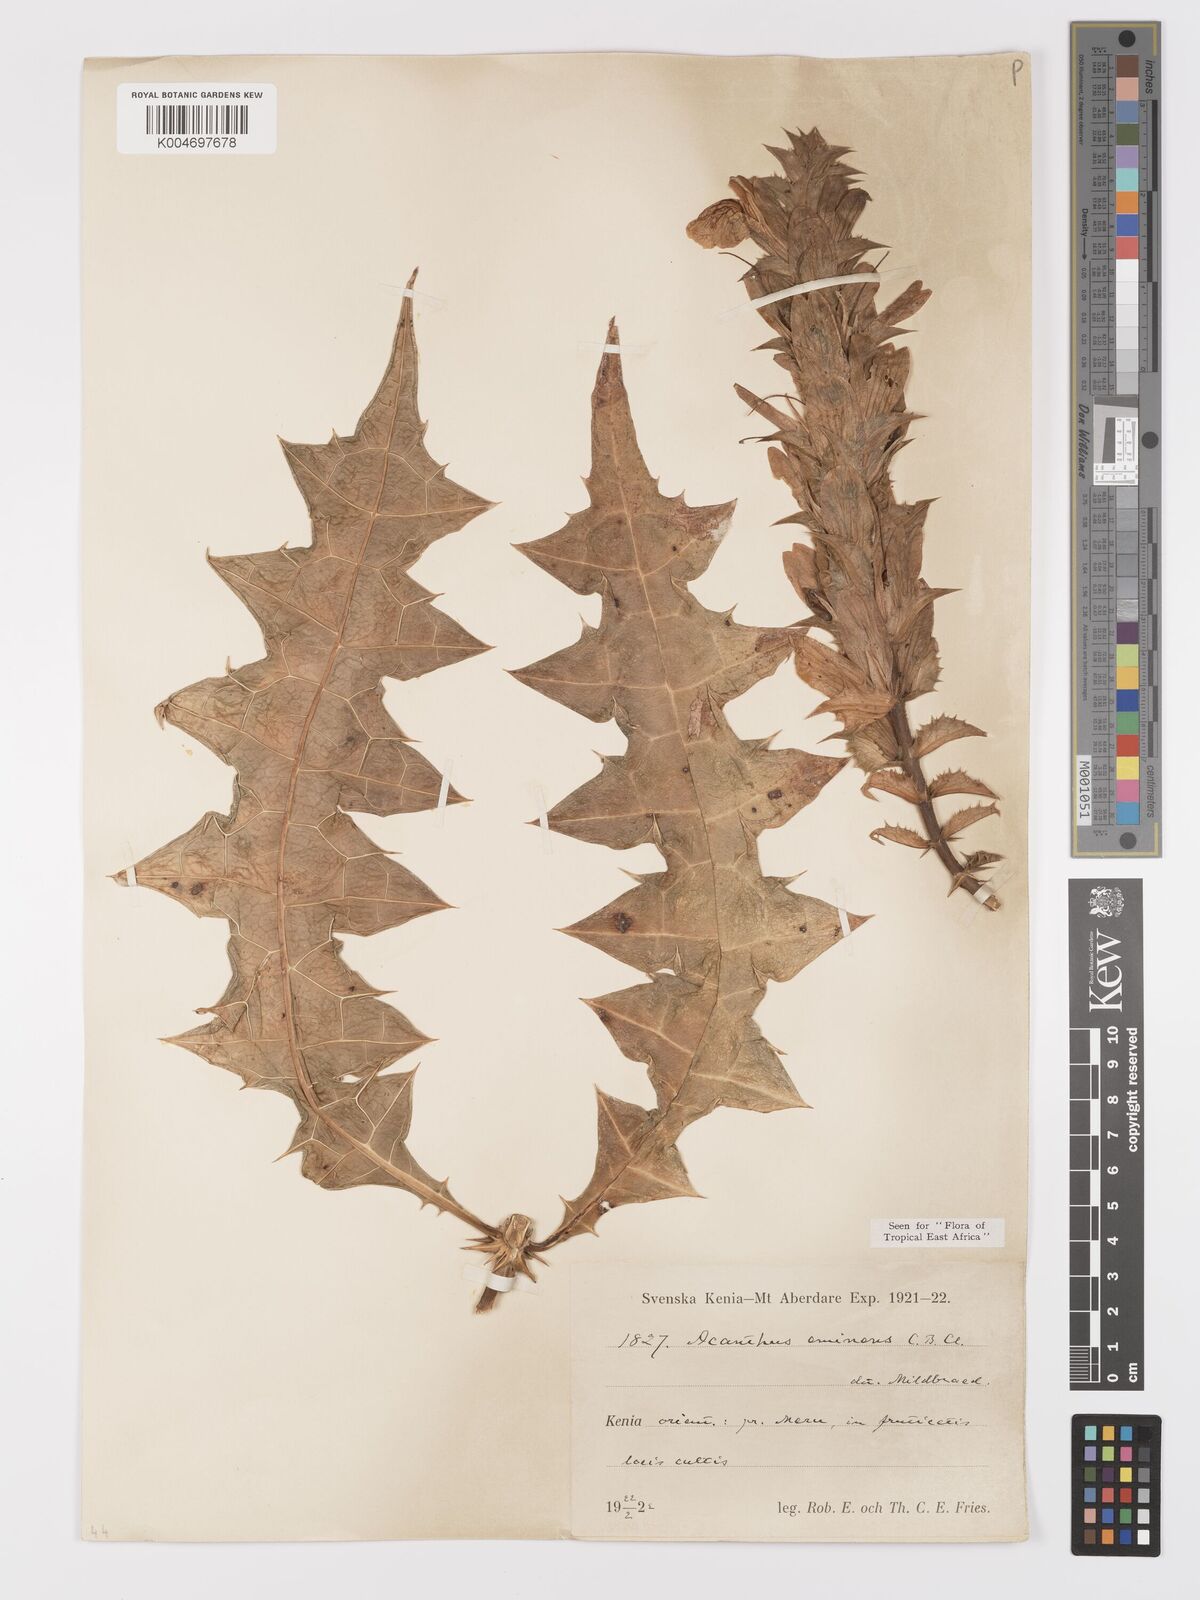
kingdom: Plantae
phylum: Tracheophyta
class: Magnoliopsida
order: Lamiales
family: Acanthaceae
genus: Acanthus
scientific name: Acanthus eminens
